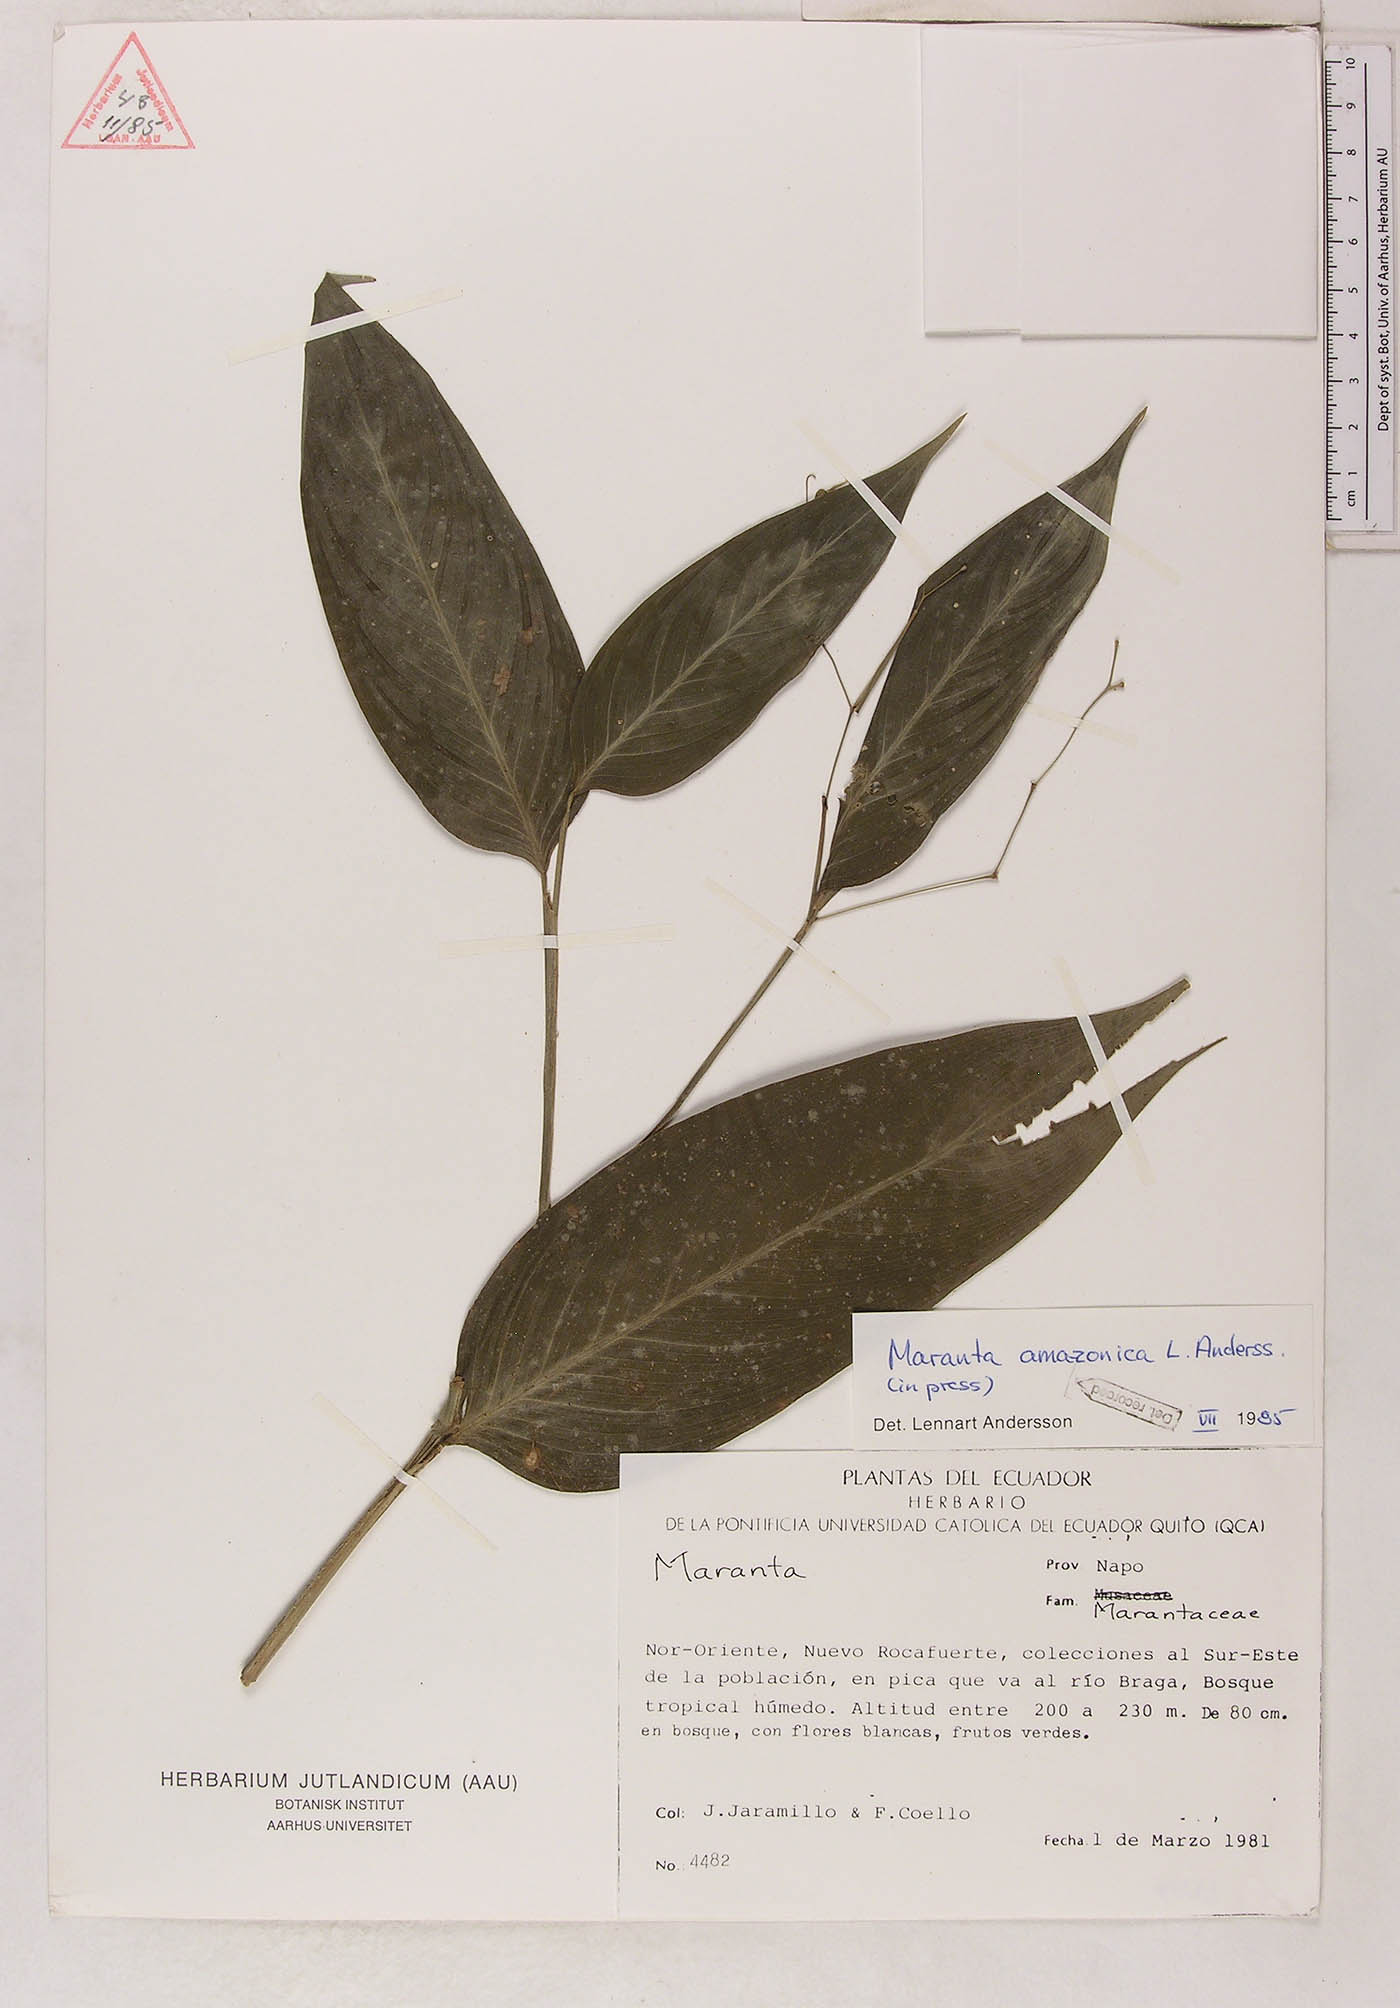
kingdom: Plantae
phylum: Tracheophyta
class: Liliopsida
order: Zingiberales
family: Marantaceae
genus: Maranta
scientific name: Maranta amazonica
